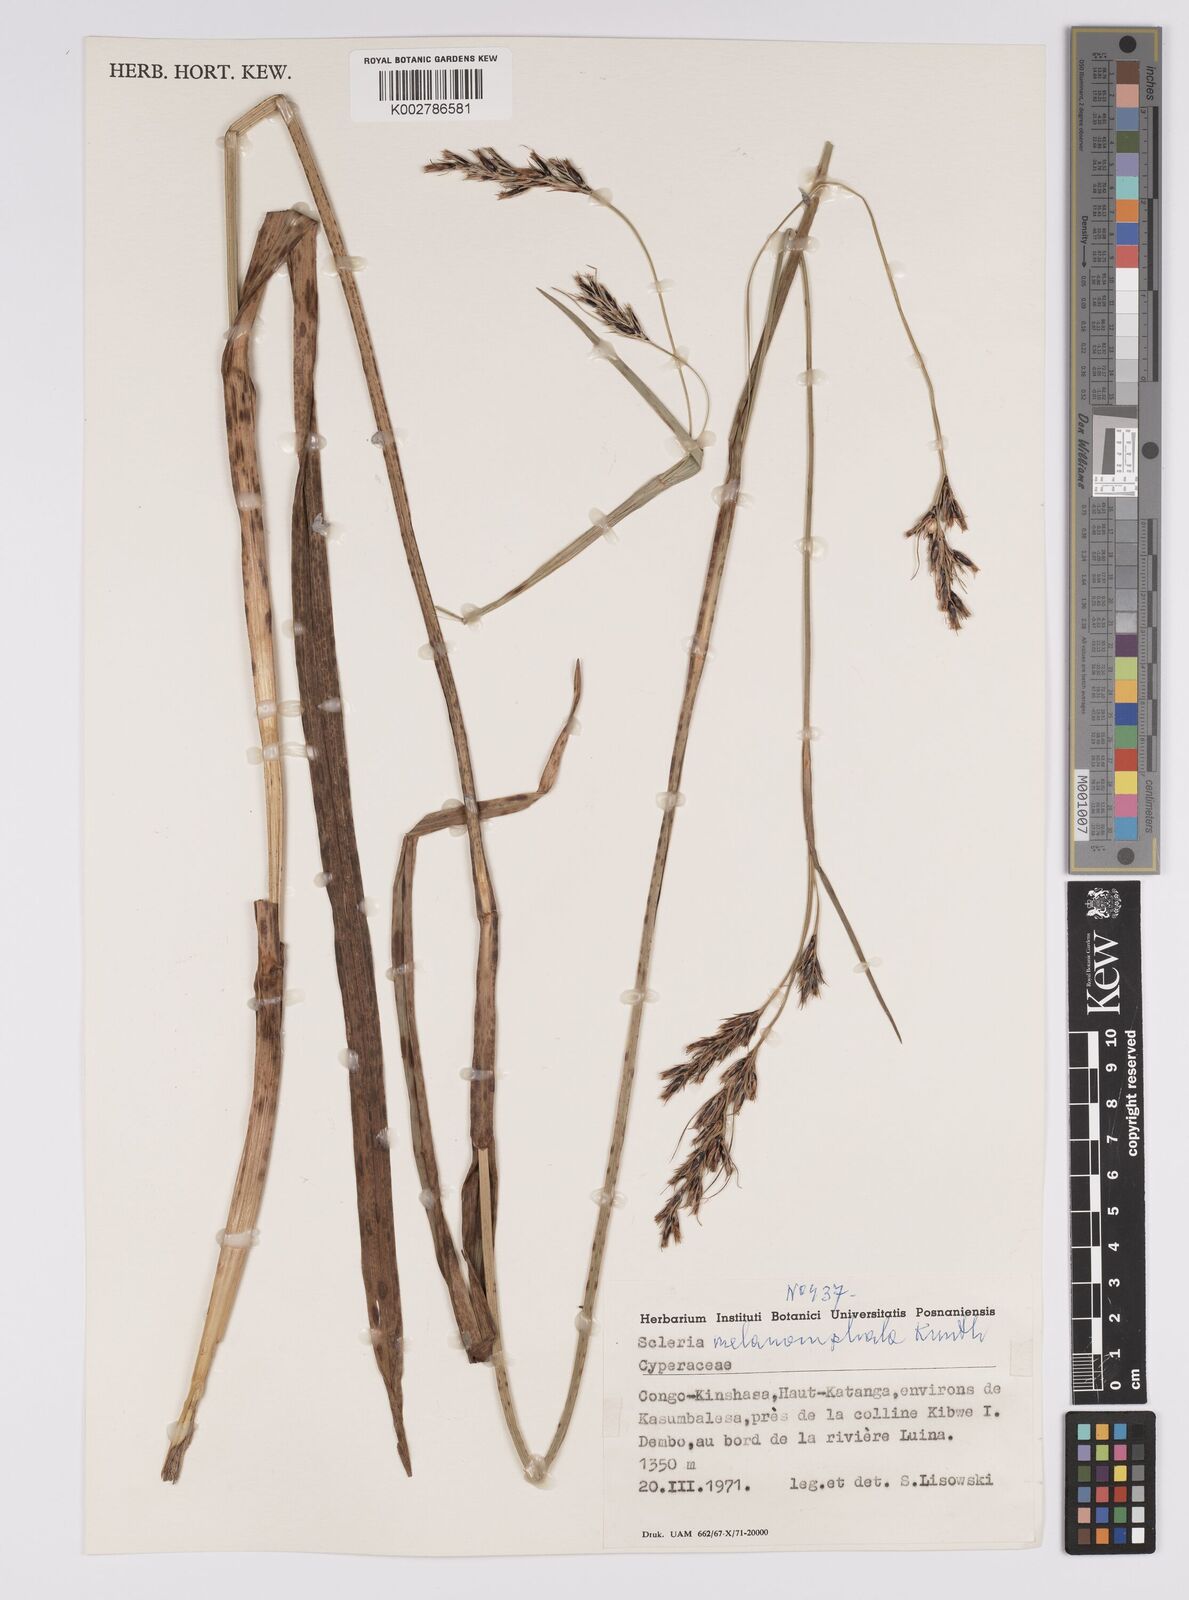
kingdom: Plantae
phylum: Tracheophyta
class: Liliopsida
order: Poales
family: Cyperaceae
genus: Scleria
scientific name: Scleria melanomphala
